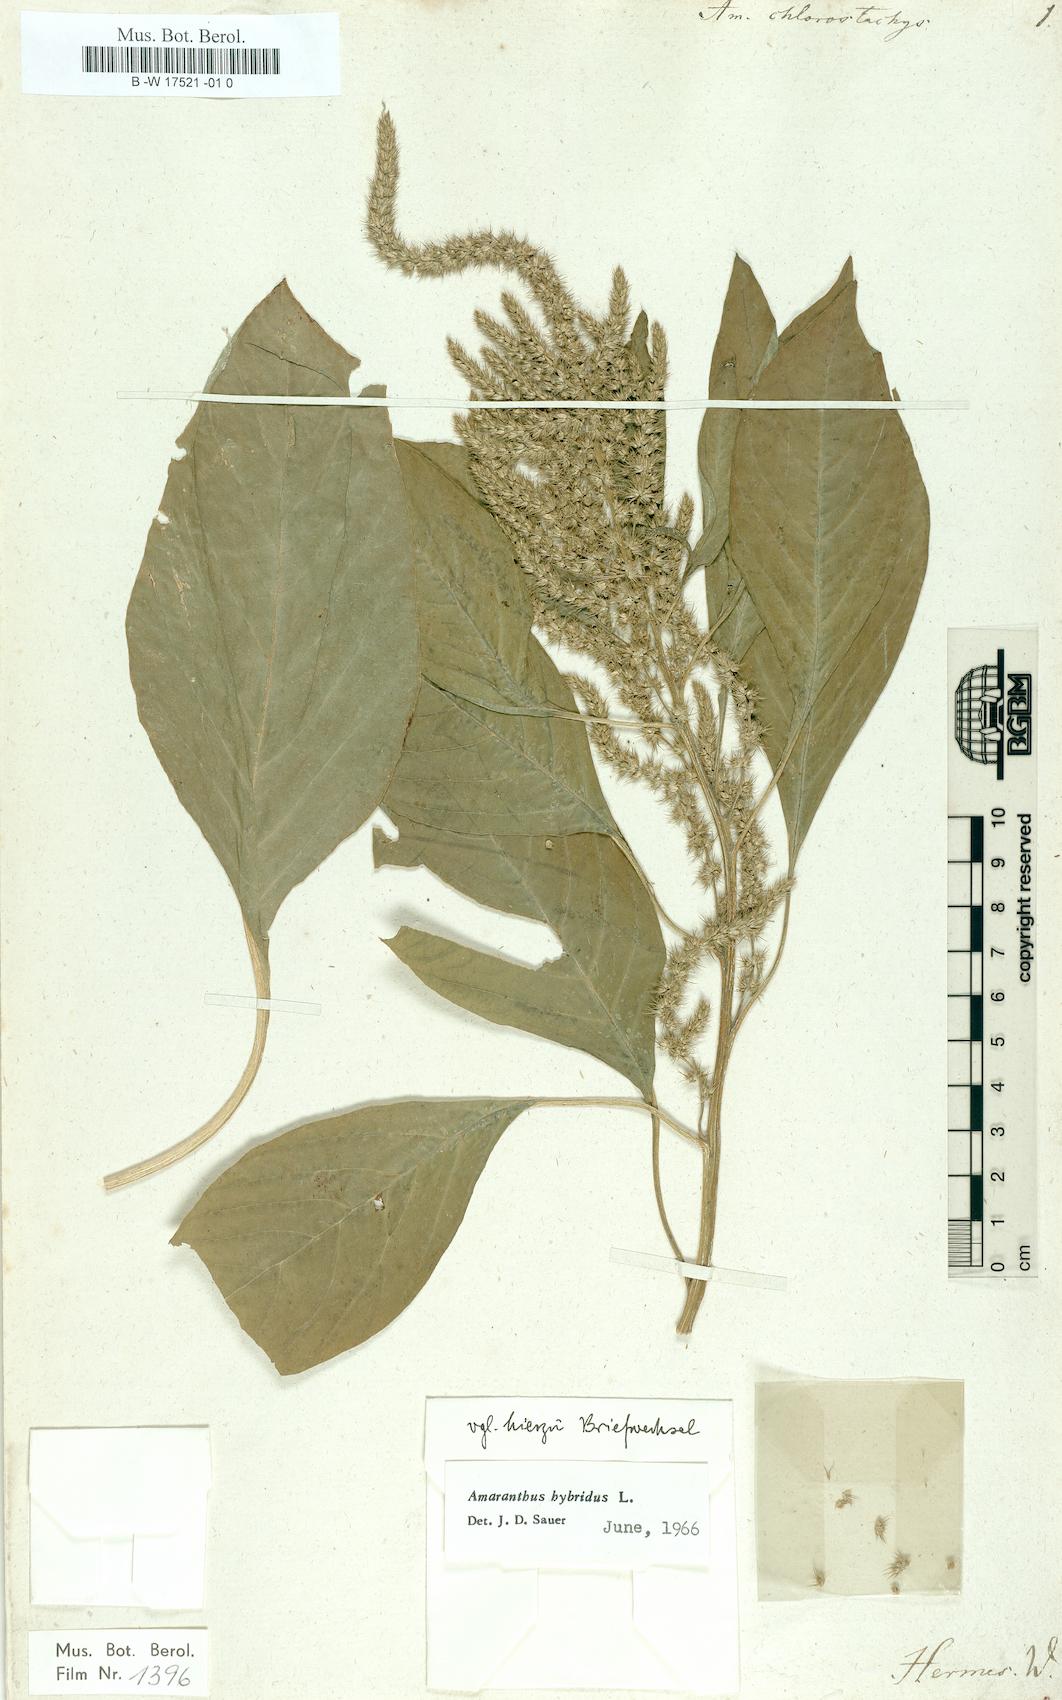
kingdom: Plantae
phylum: Tracheophyta
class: Magnoliopsida
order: Caryophyllales
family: Amaranthaceae
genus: Amaranthus
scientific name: Amaranthus
